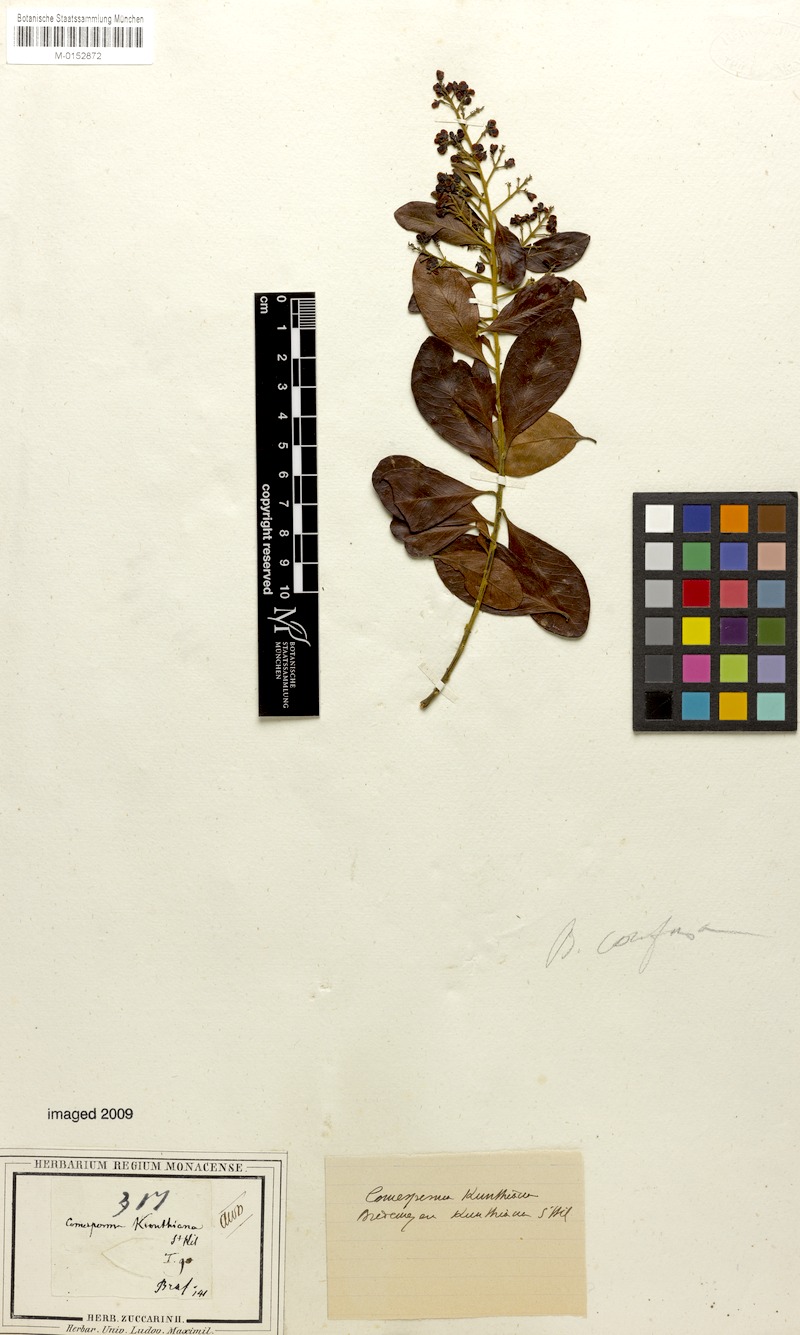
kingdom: Plantae
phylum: Tracheophyta
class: Magnoliopsida
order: Fabales
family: Polygalaceae
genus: Bredemeyera
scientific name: Bredemeyera hebeclada
